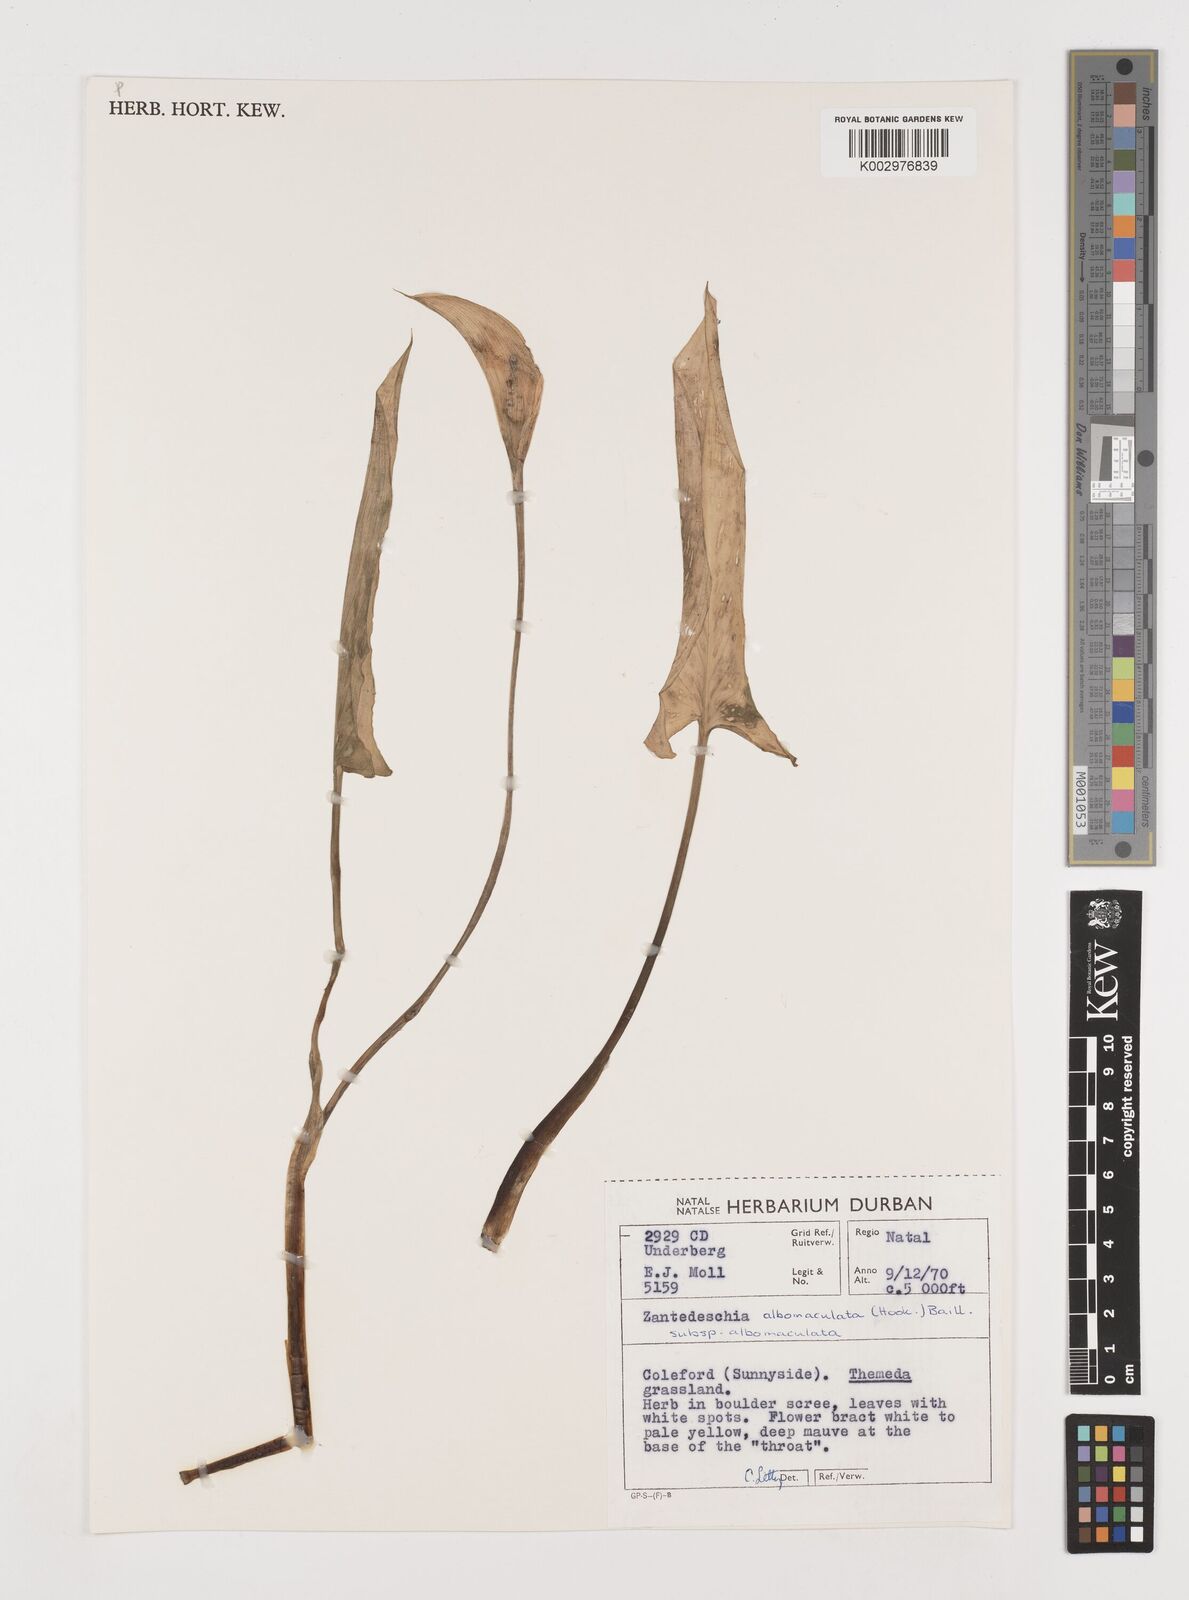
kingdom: Plantae
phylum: Tracheophyta
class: Liliopsida
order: Alismatales
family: Araceae
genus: Zantedeschia
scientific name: Zantedeschia albomaculata
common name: Spotted calla lily
